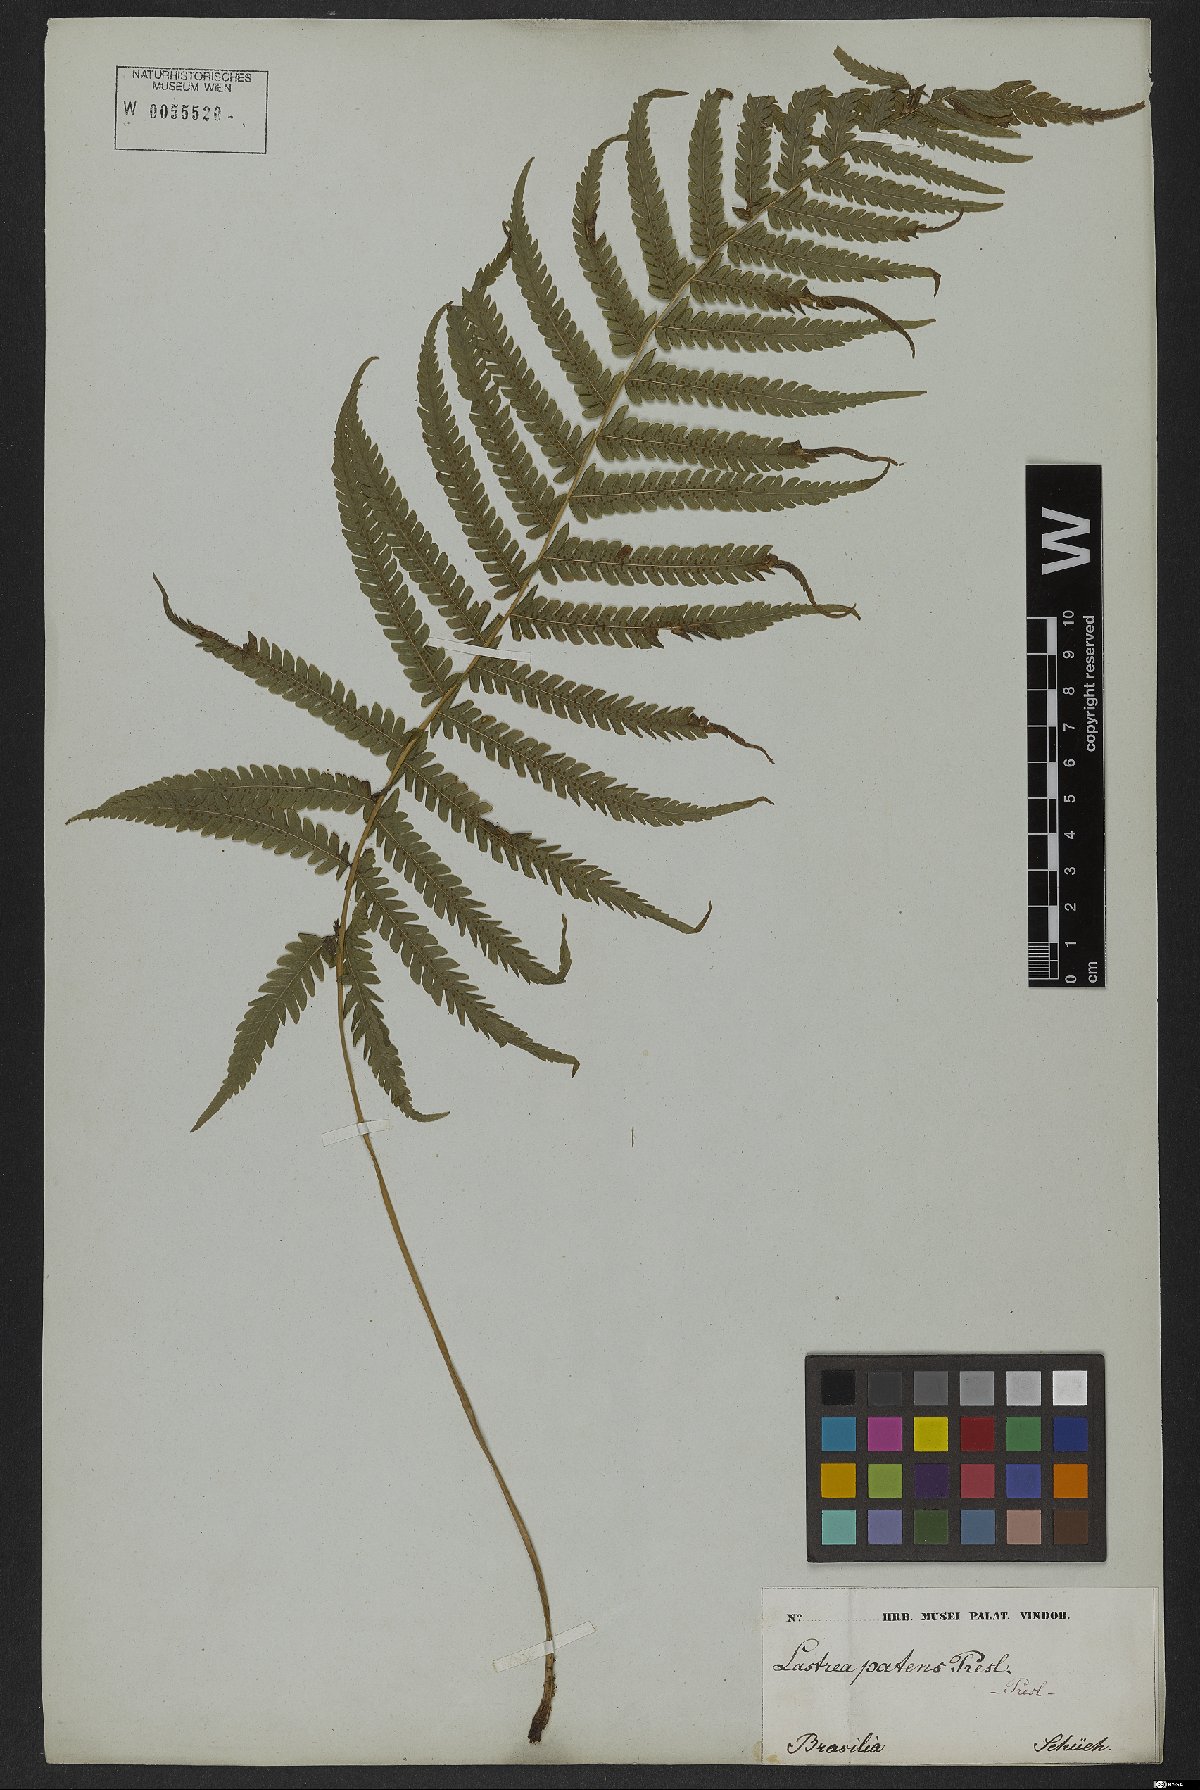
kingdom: Plantae
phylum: Tracheophyta
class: Polypodiopsida
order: Polypodiales
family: Thelypteridaceae
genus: Pelazoneuron
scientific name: Pelazoneuron patens
